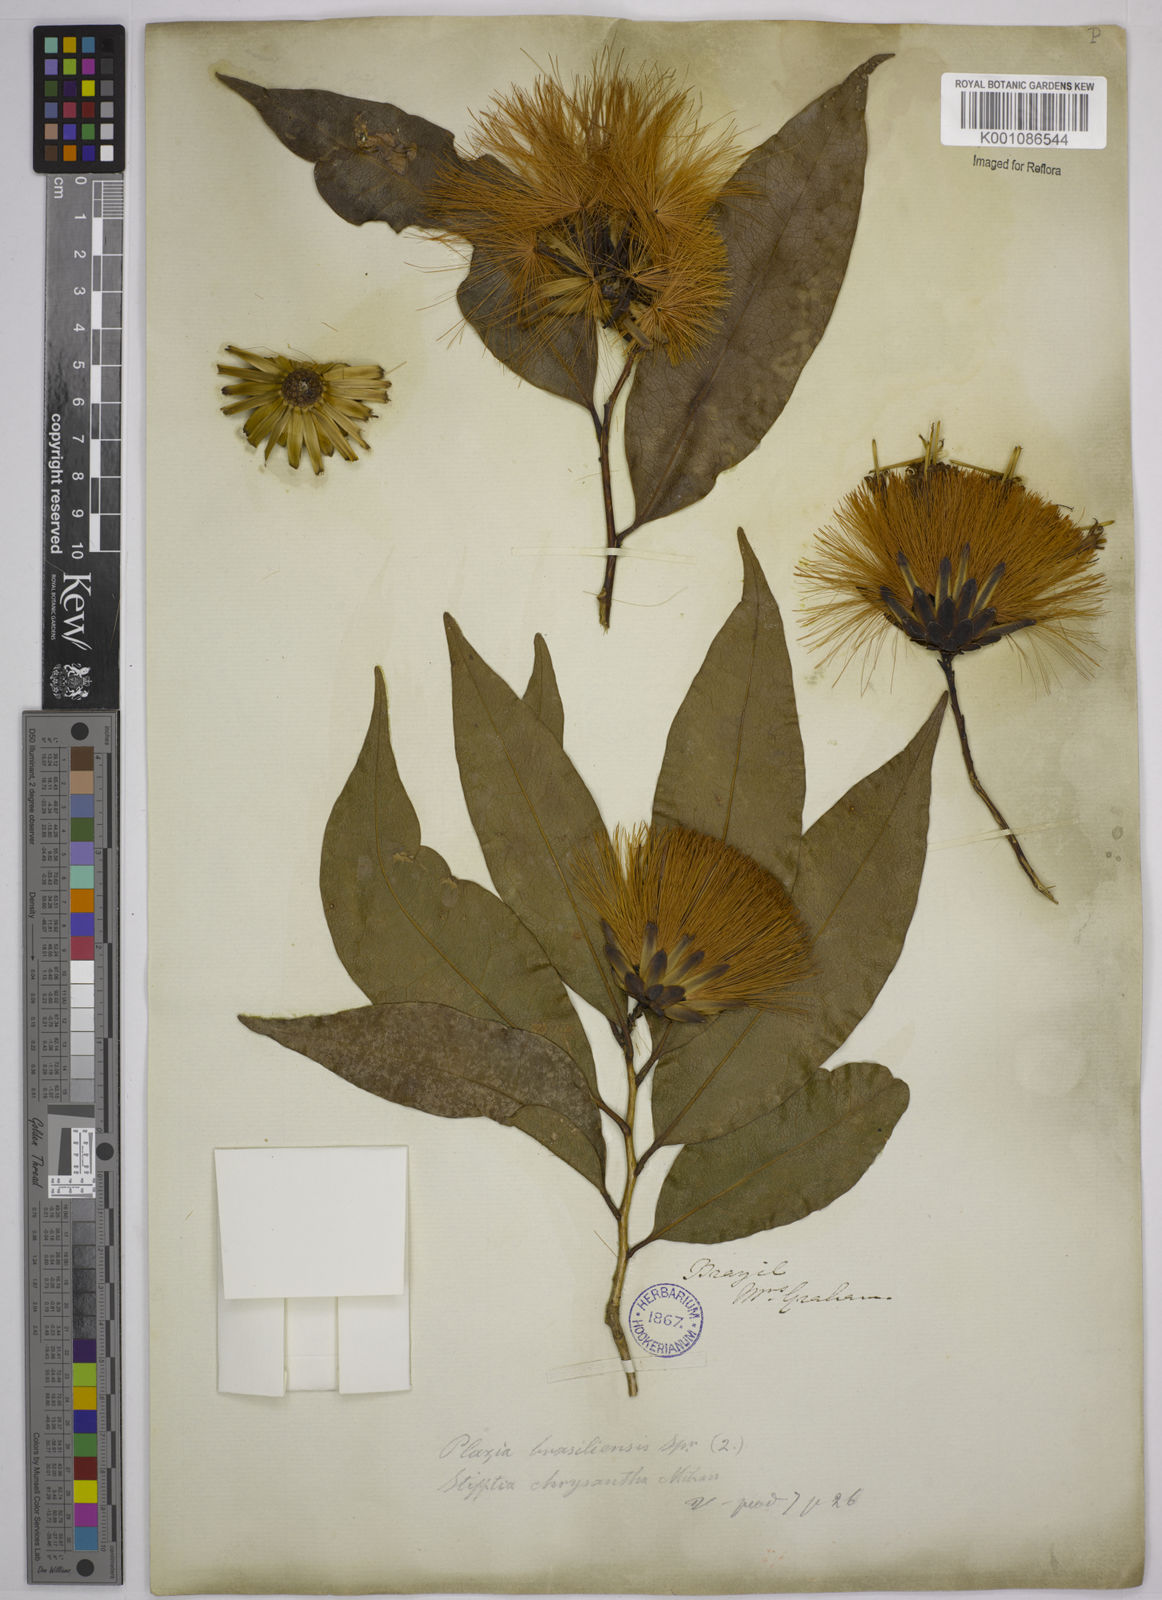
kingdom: Plantae
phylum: Tracheophyta
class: Magnoliopsida
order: Asterales
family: Asteraceae
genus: Stifftia
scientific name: Stifftia chrysantha
